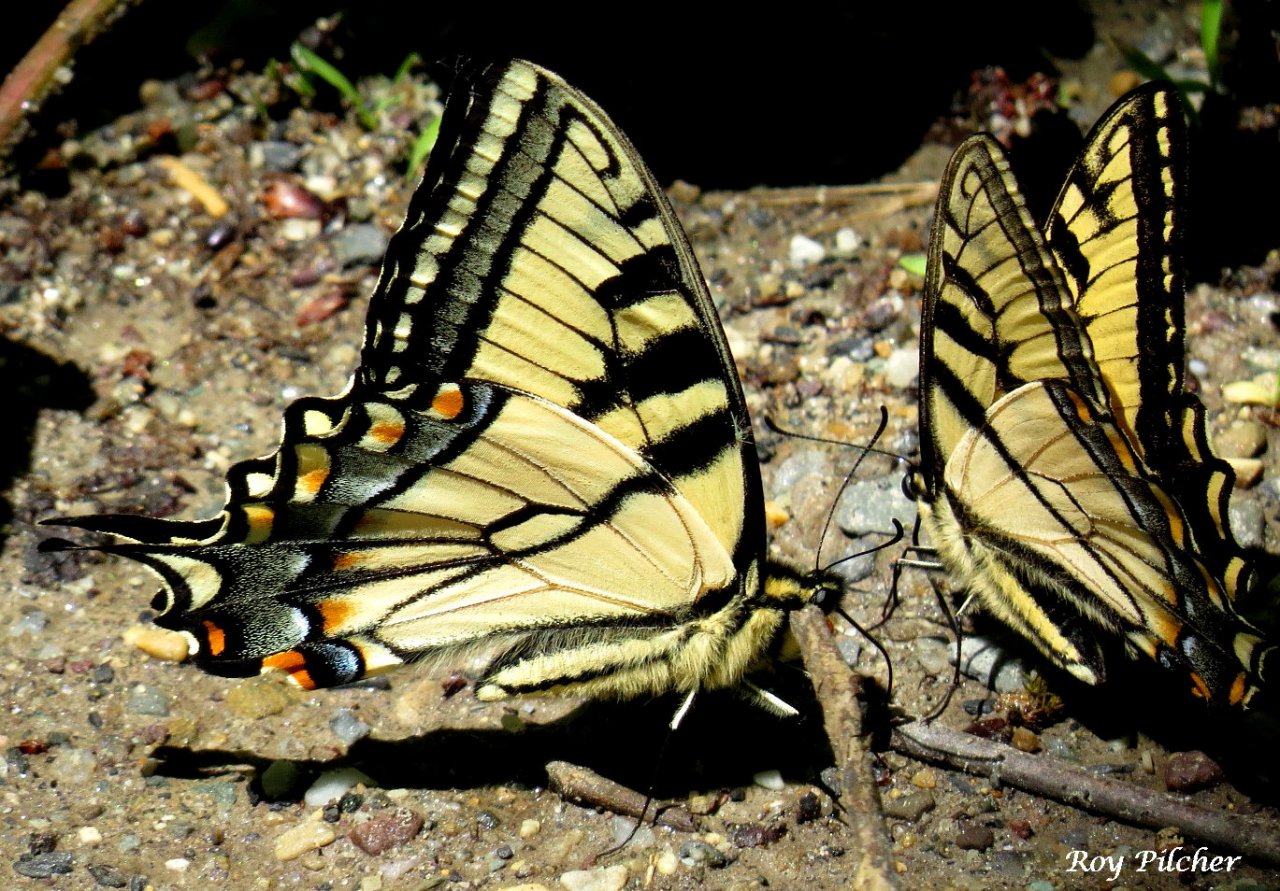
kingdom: Animalia
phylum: Arthropoda
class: Insecta
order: Lepidoptera
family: Papilionidae
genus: Pterourus
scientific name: Pterourus glaucus
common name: Eastern Tiger Swallowtail
